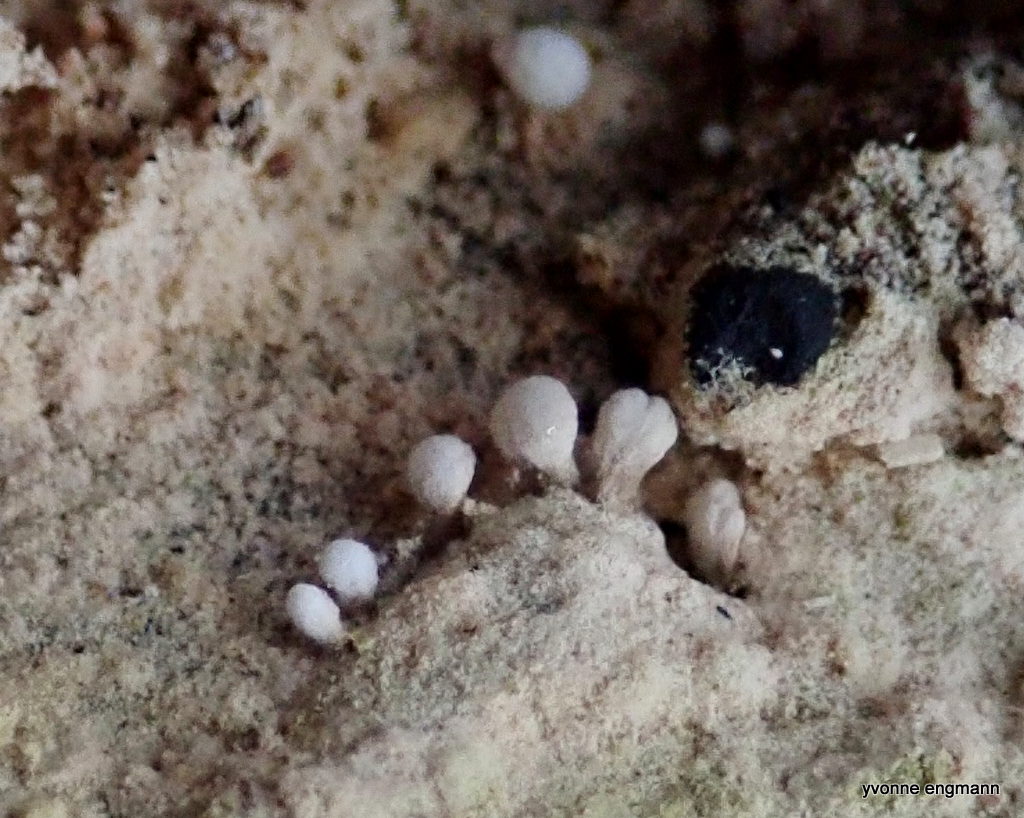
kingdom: Fungi
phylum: Basidiomycota
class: Atractiellomycetes
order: Atractiellales
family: Phleogenaceae
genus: Phleogena
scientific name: Phleogena faginea
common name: pudderkølle
